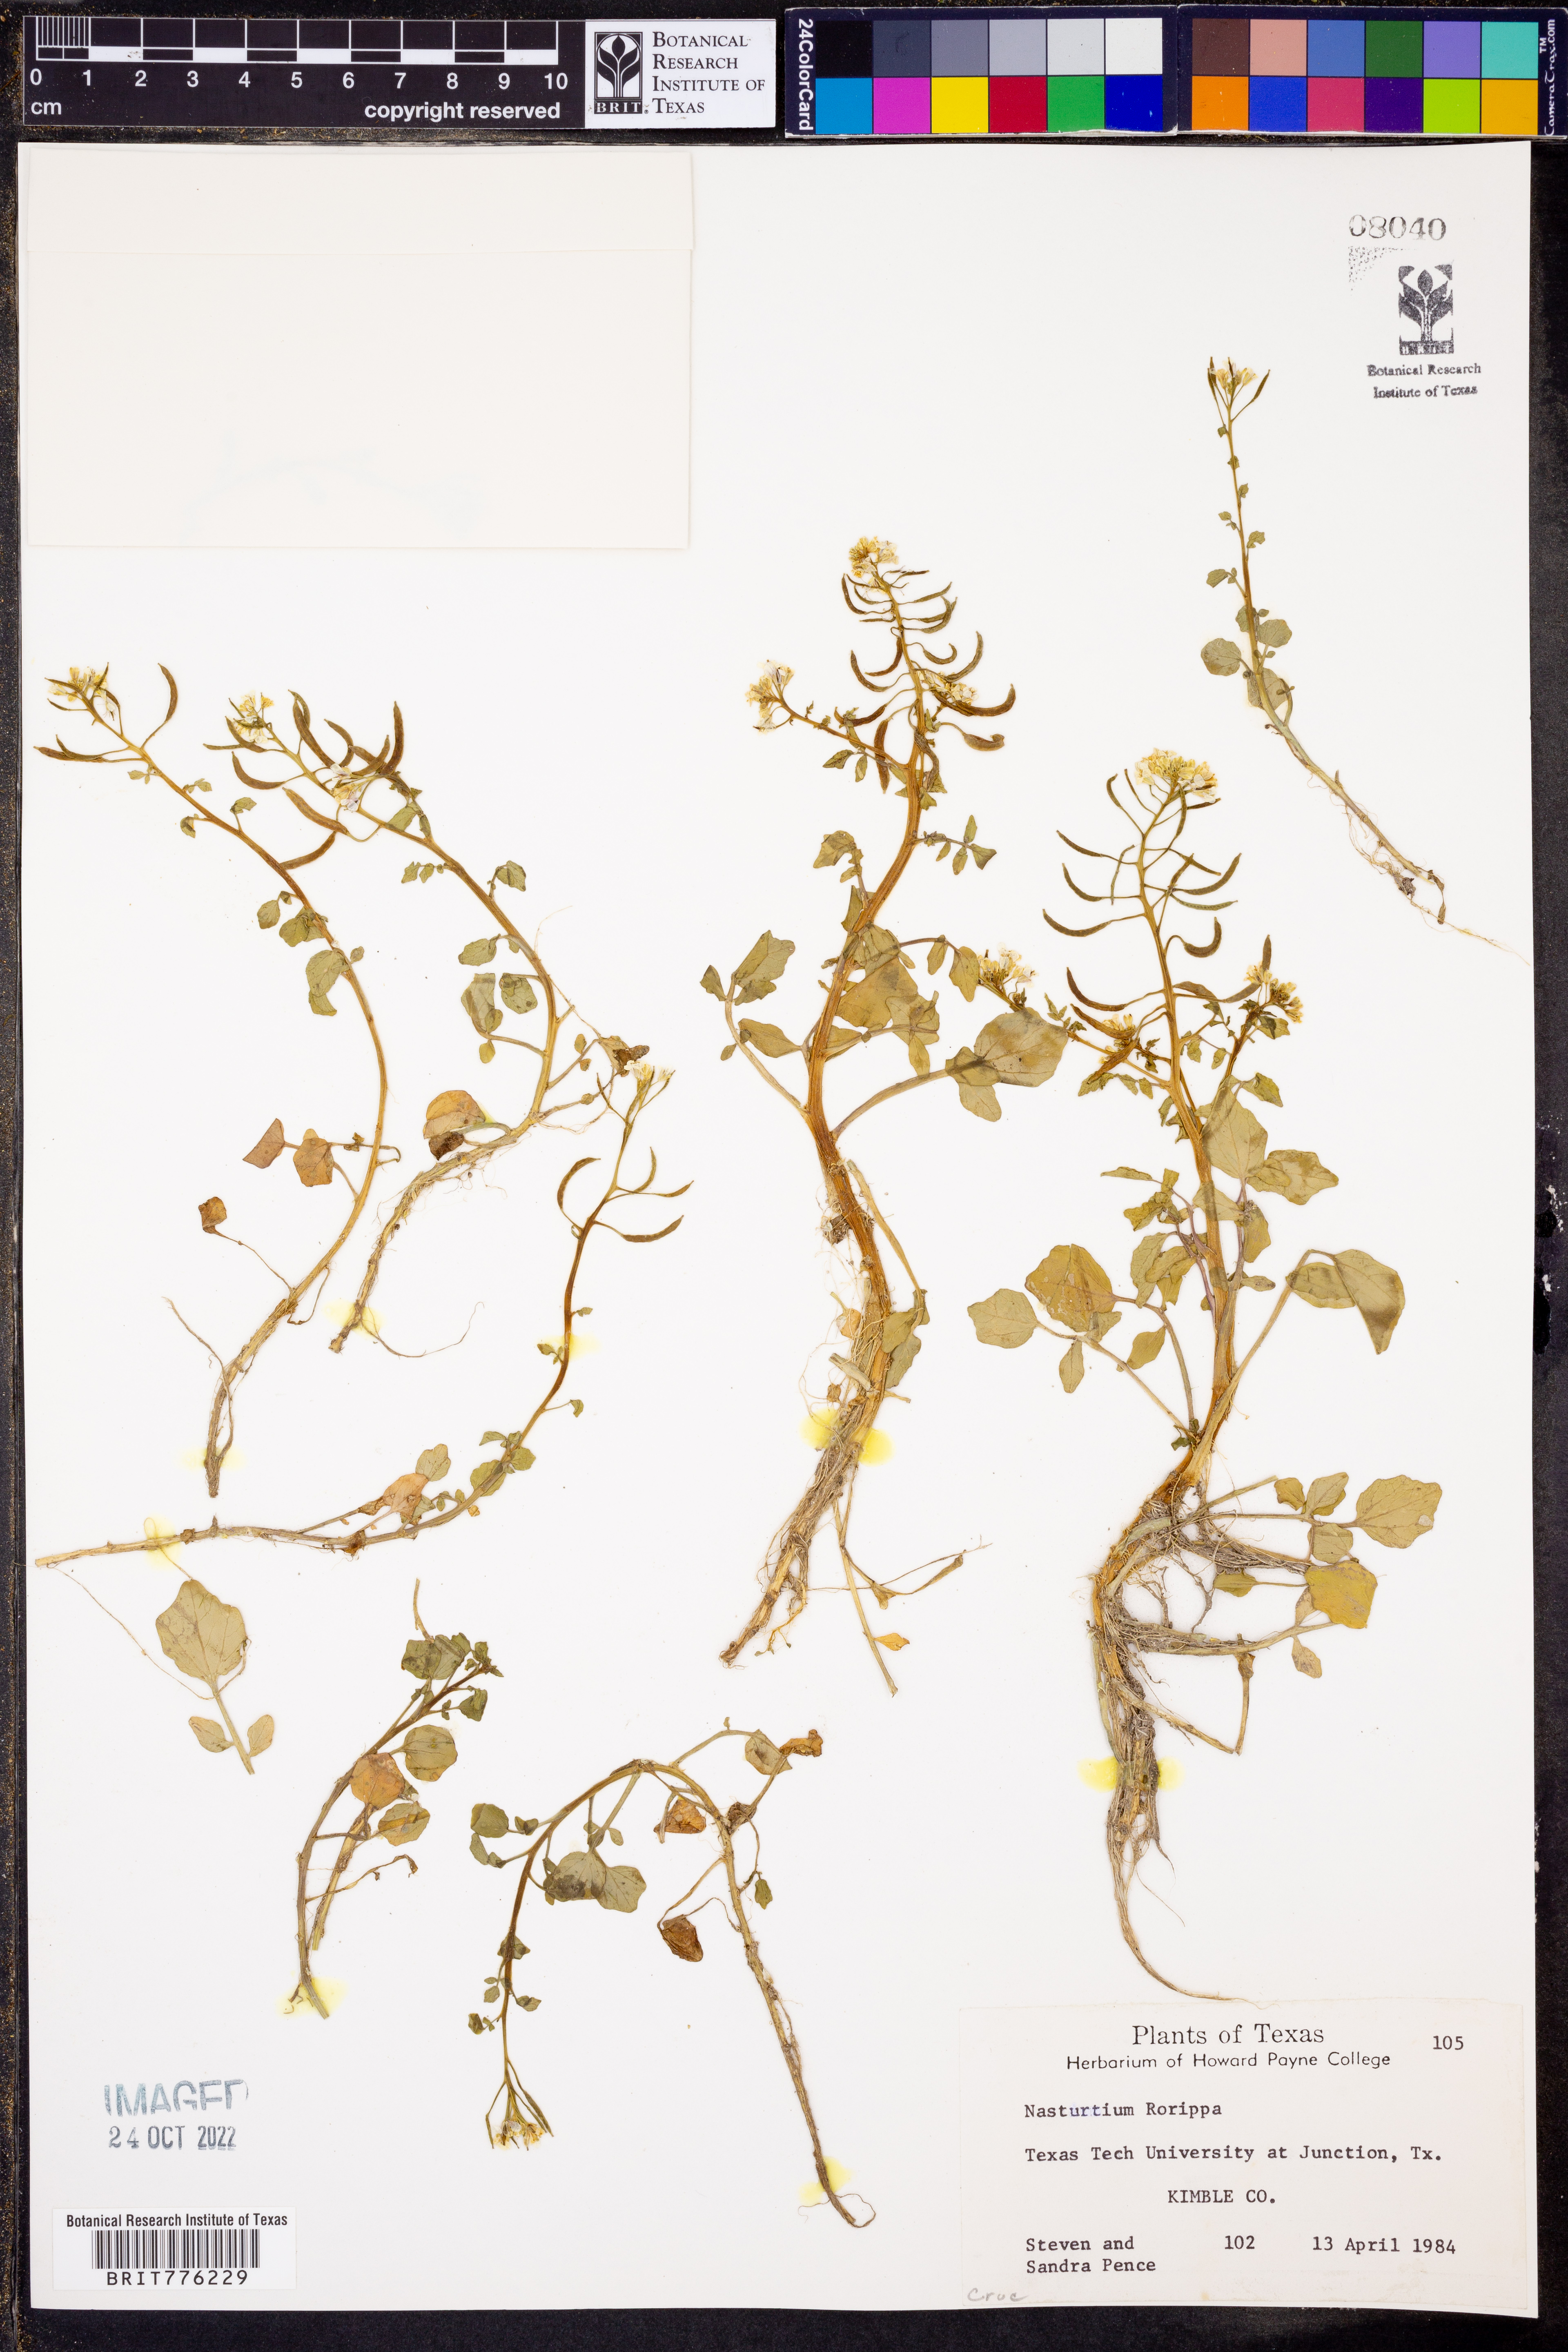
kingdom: Plantae
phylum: Tracheophyta
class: Magnoliopsida
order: Brassicales
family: Brassicaceae
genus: Nasturtium
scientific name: Nasturtium officinale
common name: Watercress
